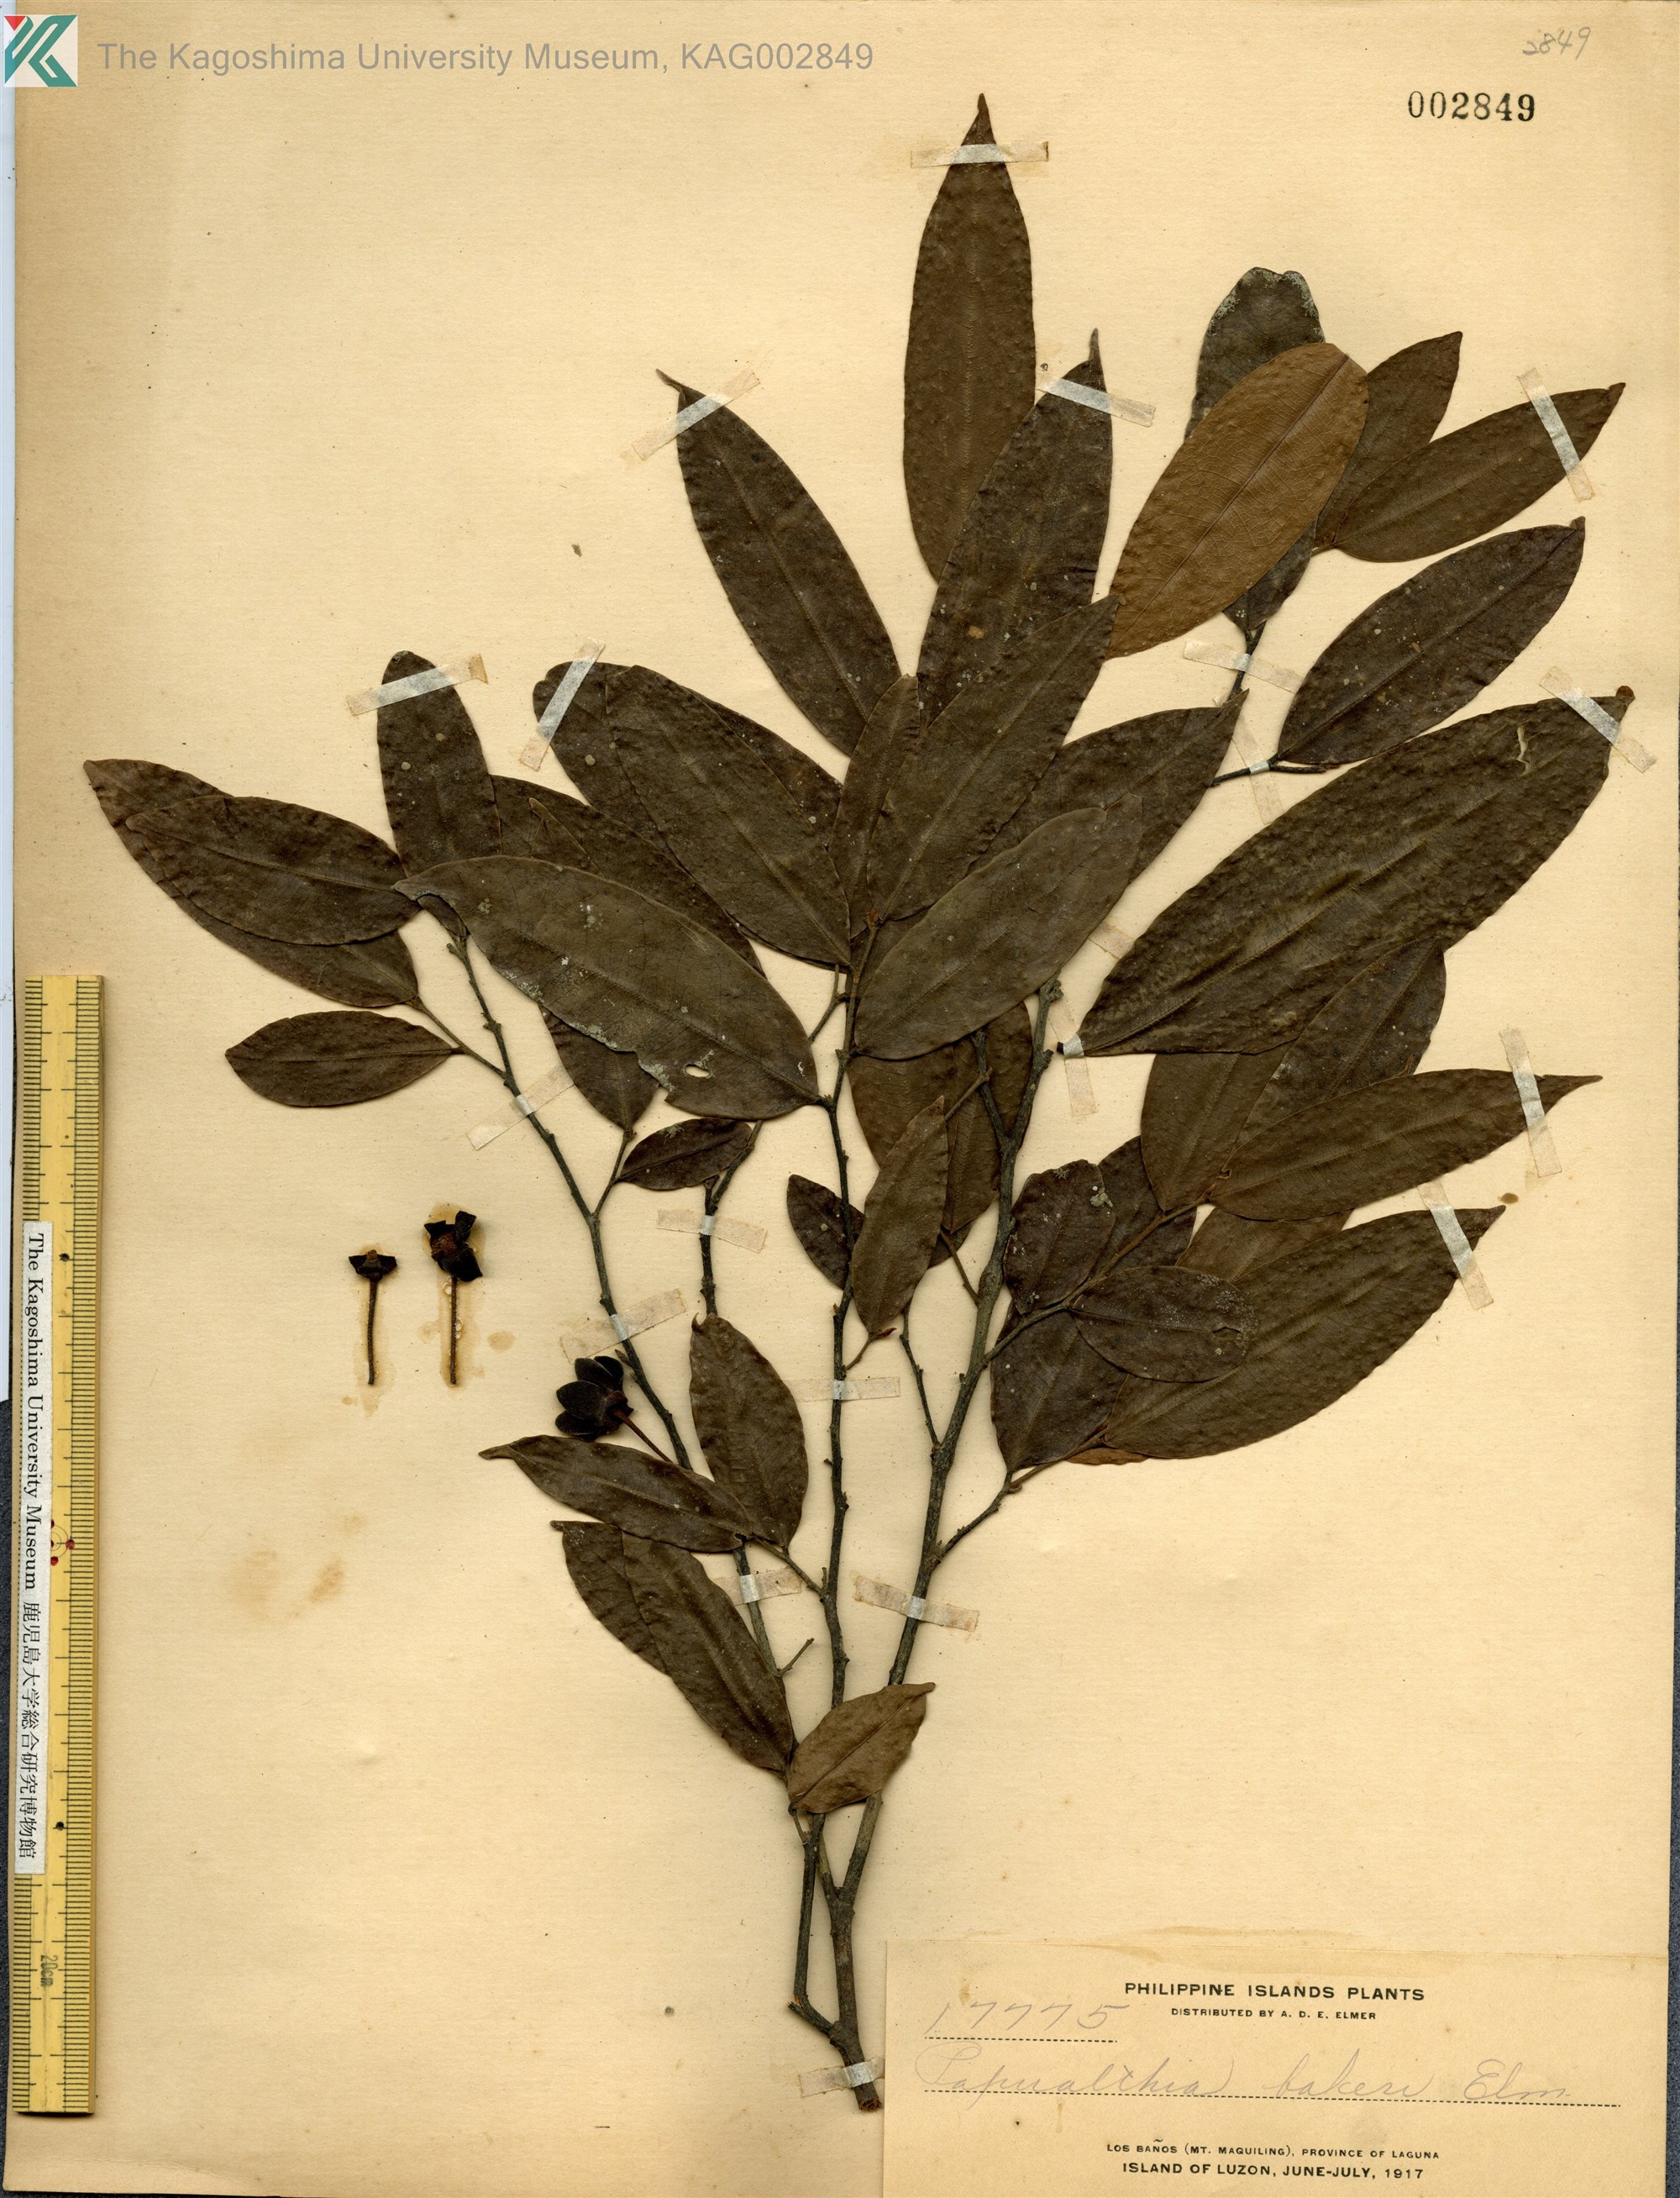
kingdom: Plantae
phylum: Tracheophyta
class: Magnoliopsida
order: Magnoliales
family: Annonaceae
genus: Haplostichanthus
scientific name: Haplostichanthus lanceolata
